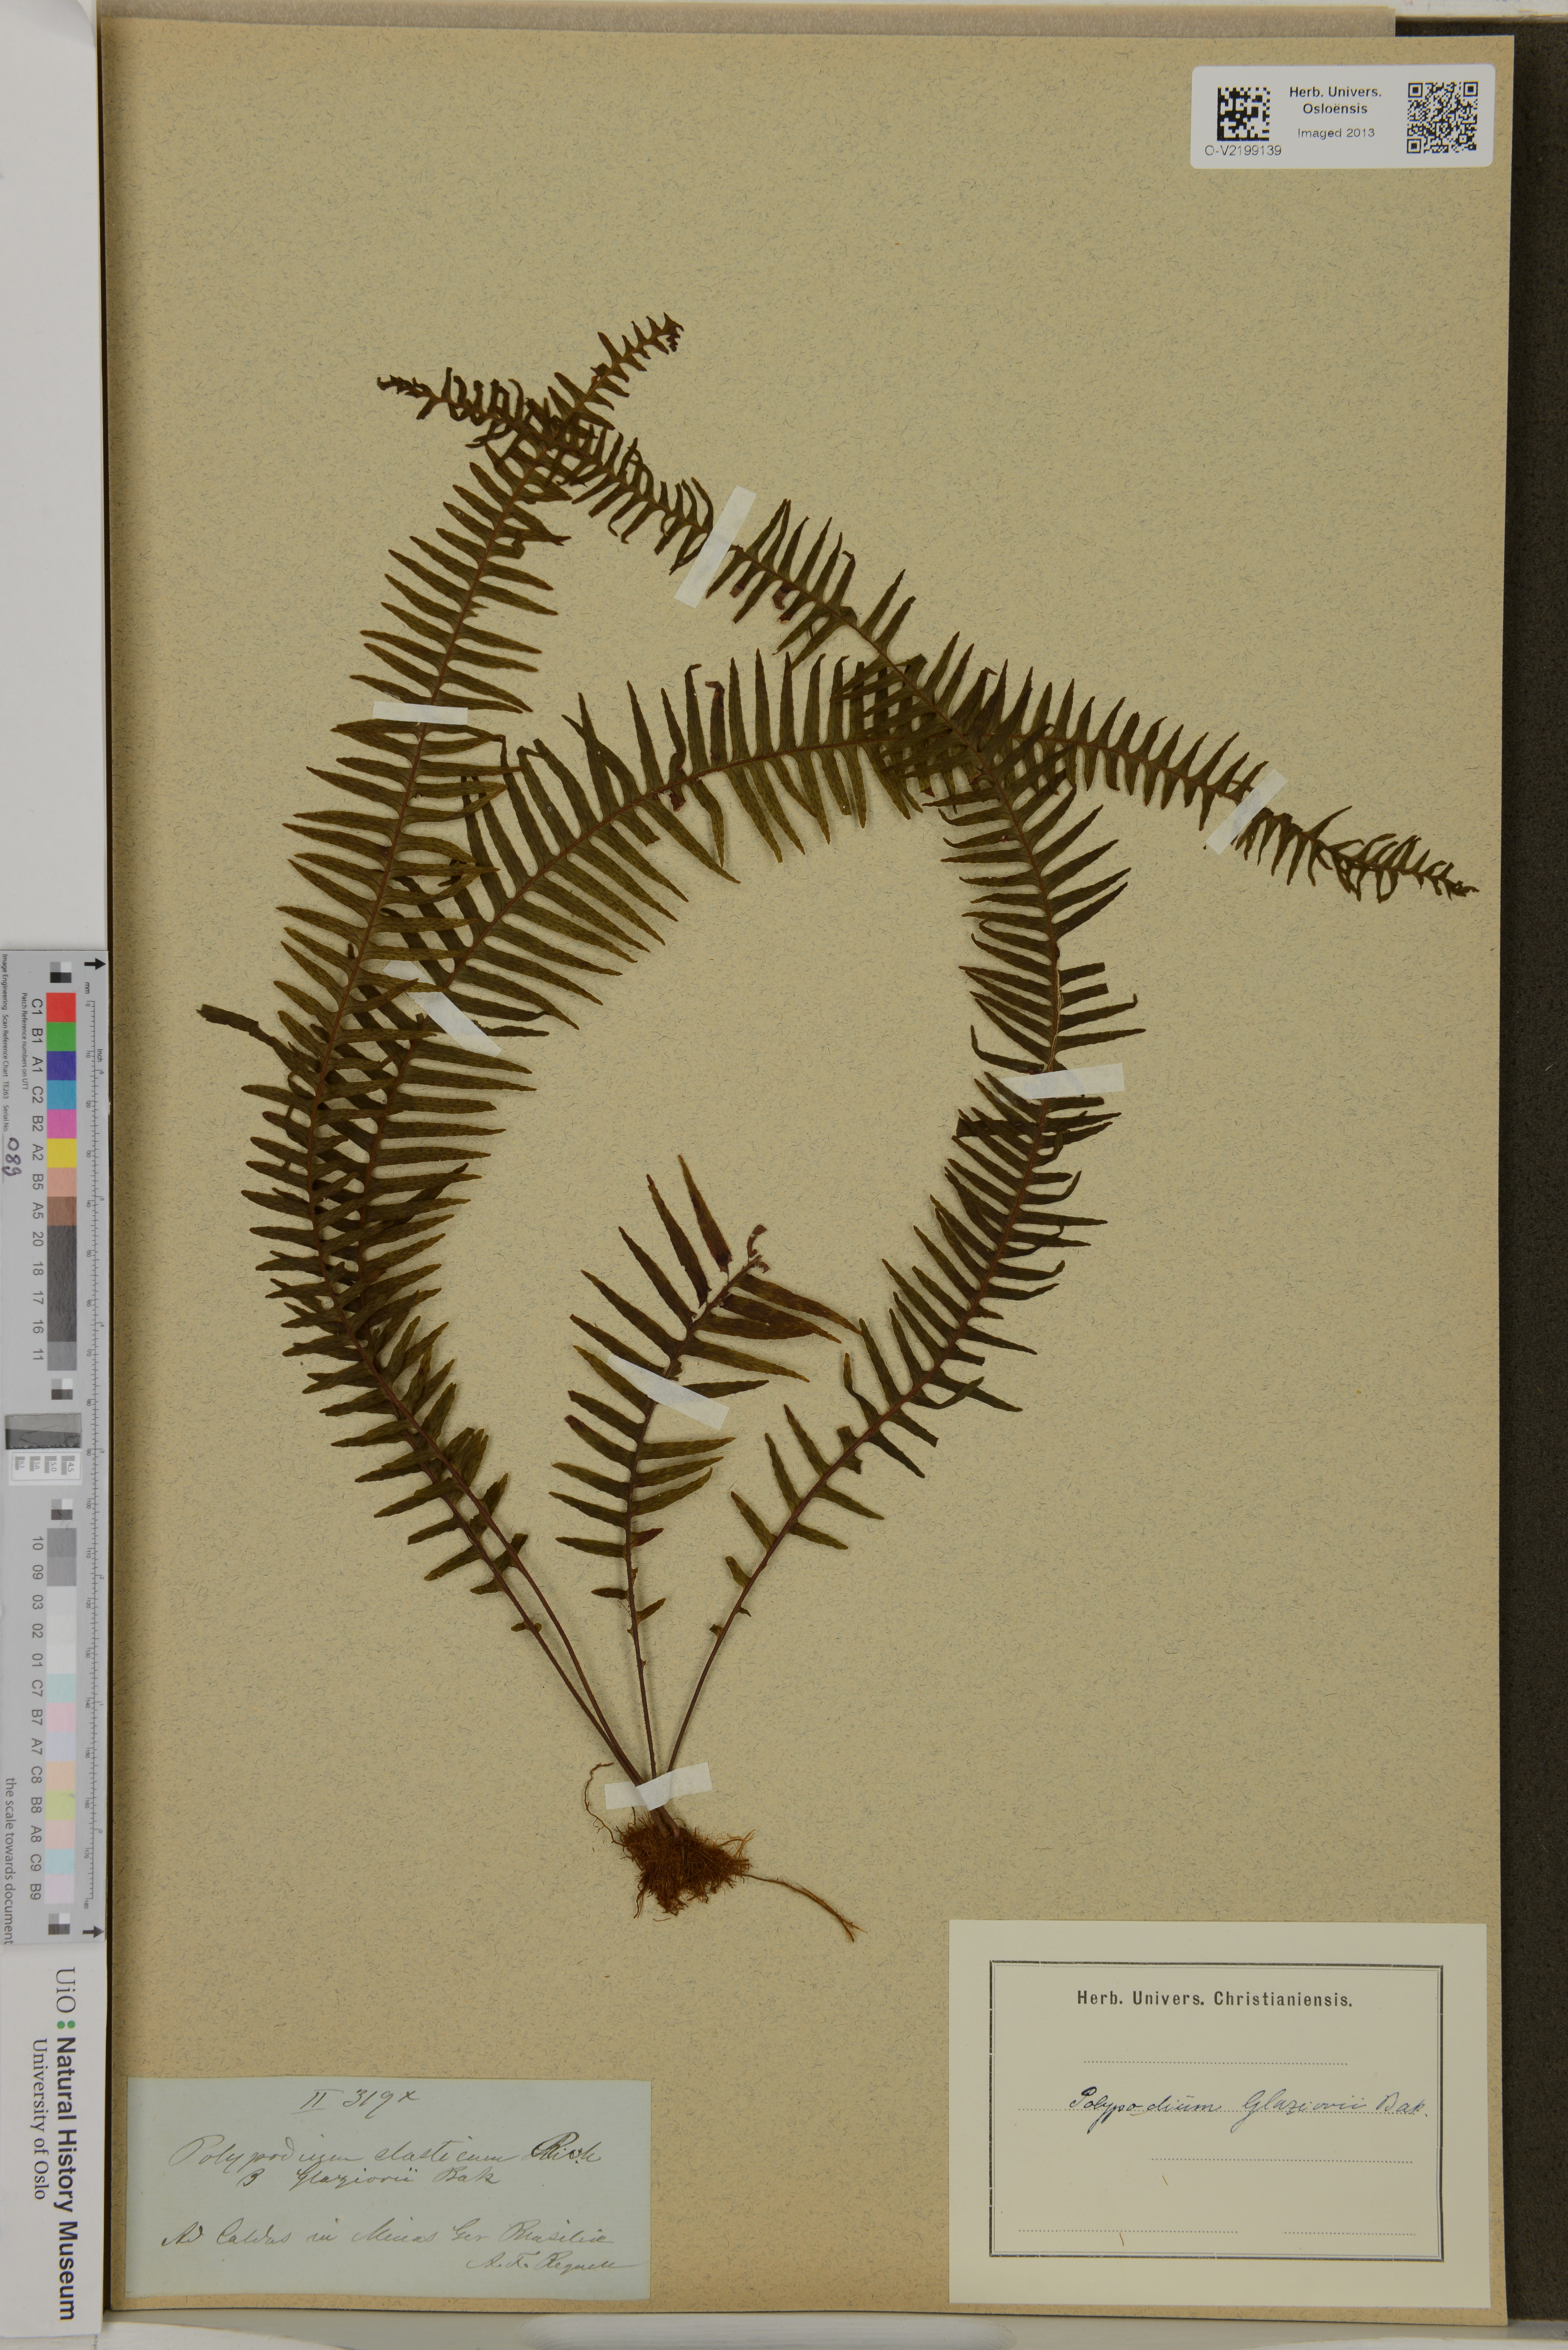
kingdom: Plantae
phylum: Tracheophyta
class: Polypodiopsida
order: Polypodiales
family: Polypodiaceae
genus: Polypodium
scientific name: Polypodium glaziovii
